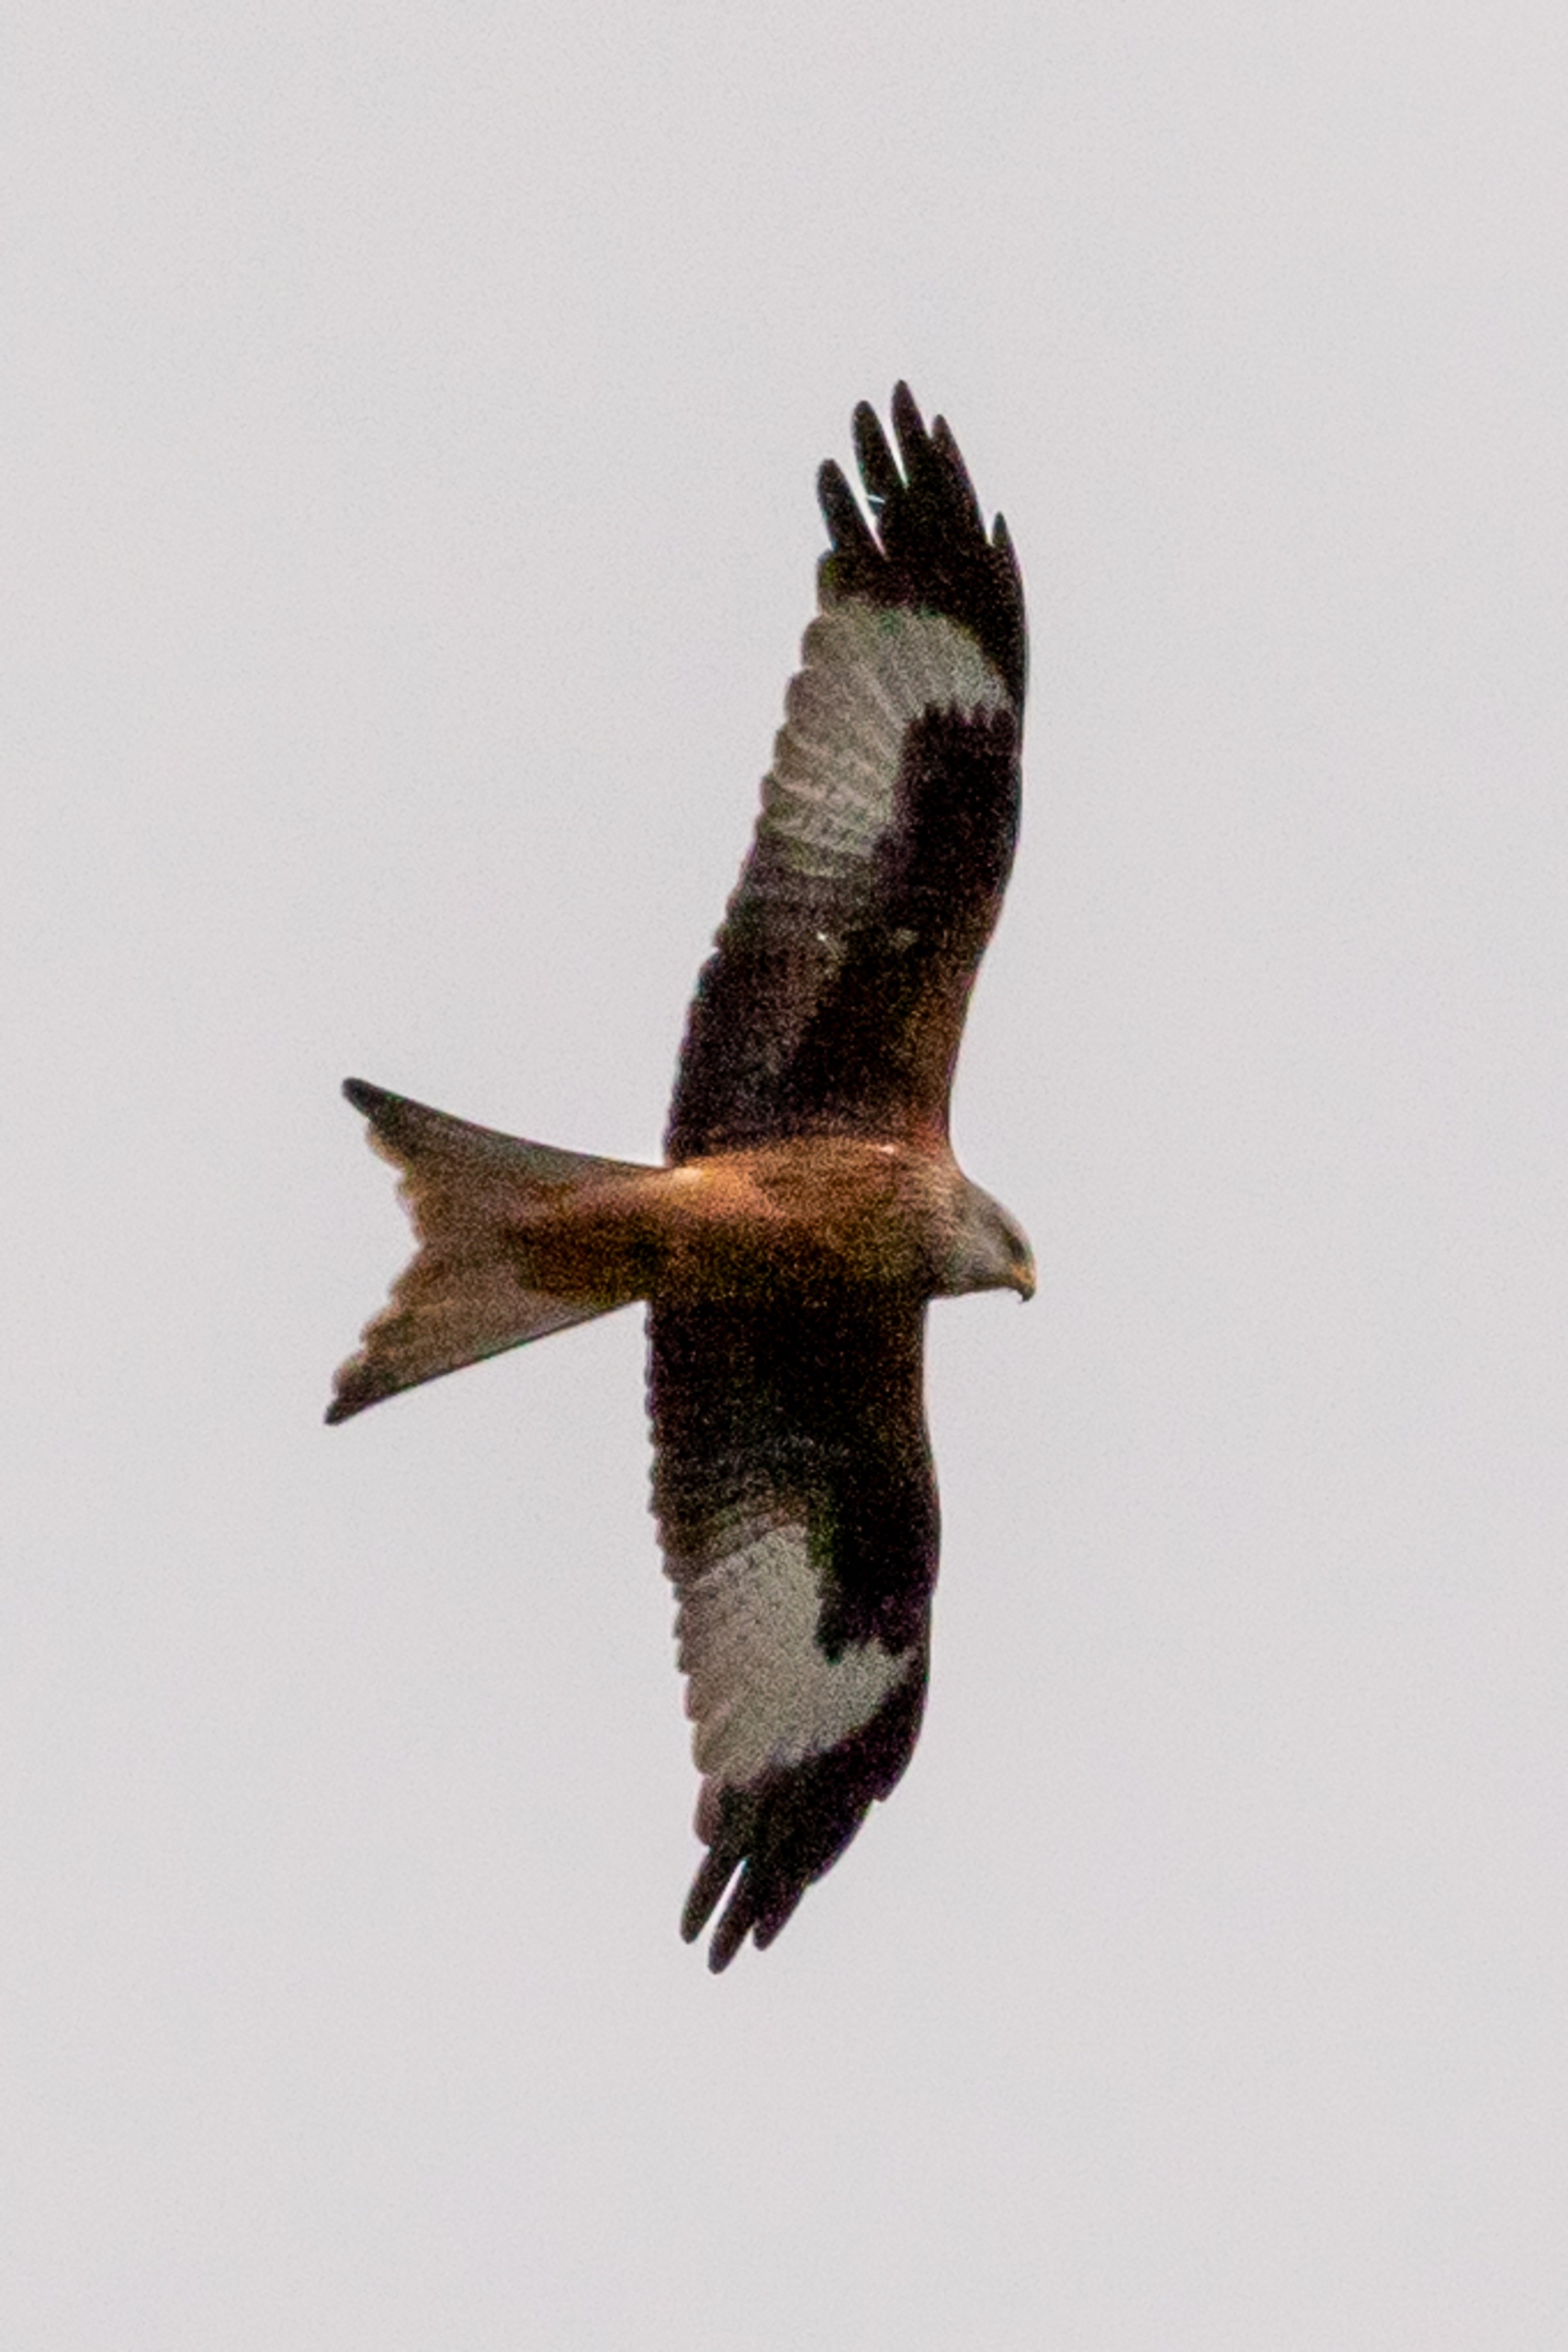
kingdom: Animalia
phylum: Chordata
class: Aves
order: Accipitriformes
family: Accipitridae
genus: Milvus
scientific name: Milvus milvus
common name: Rød glente
